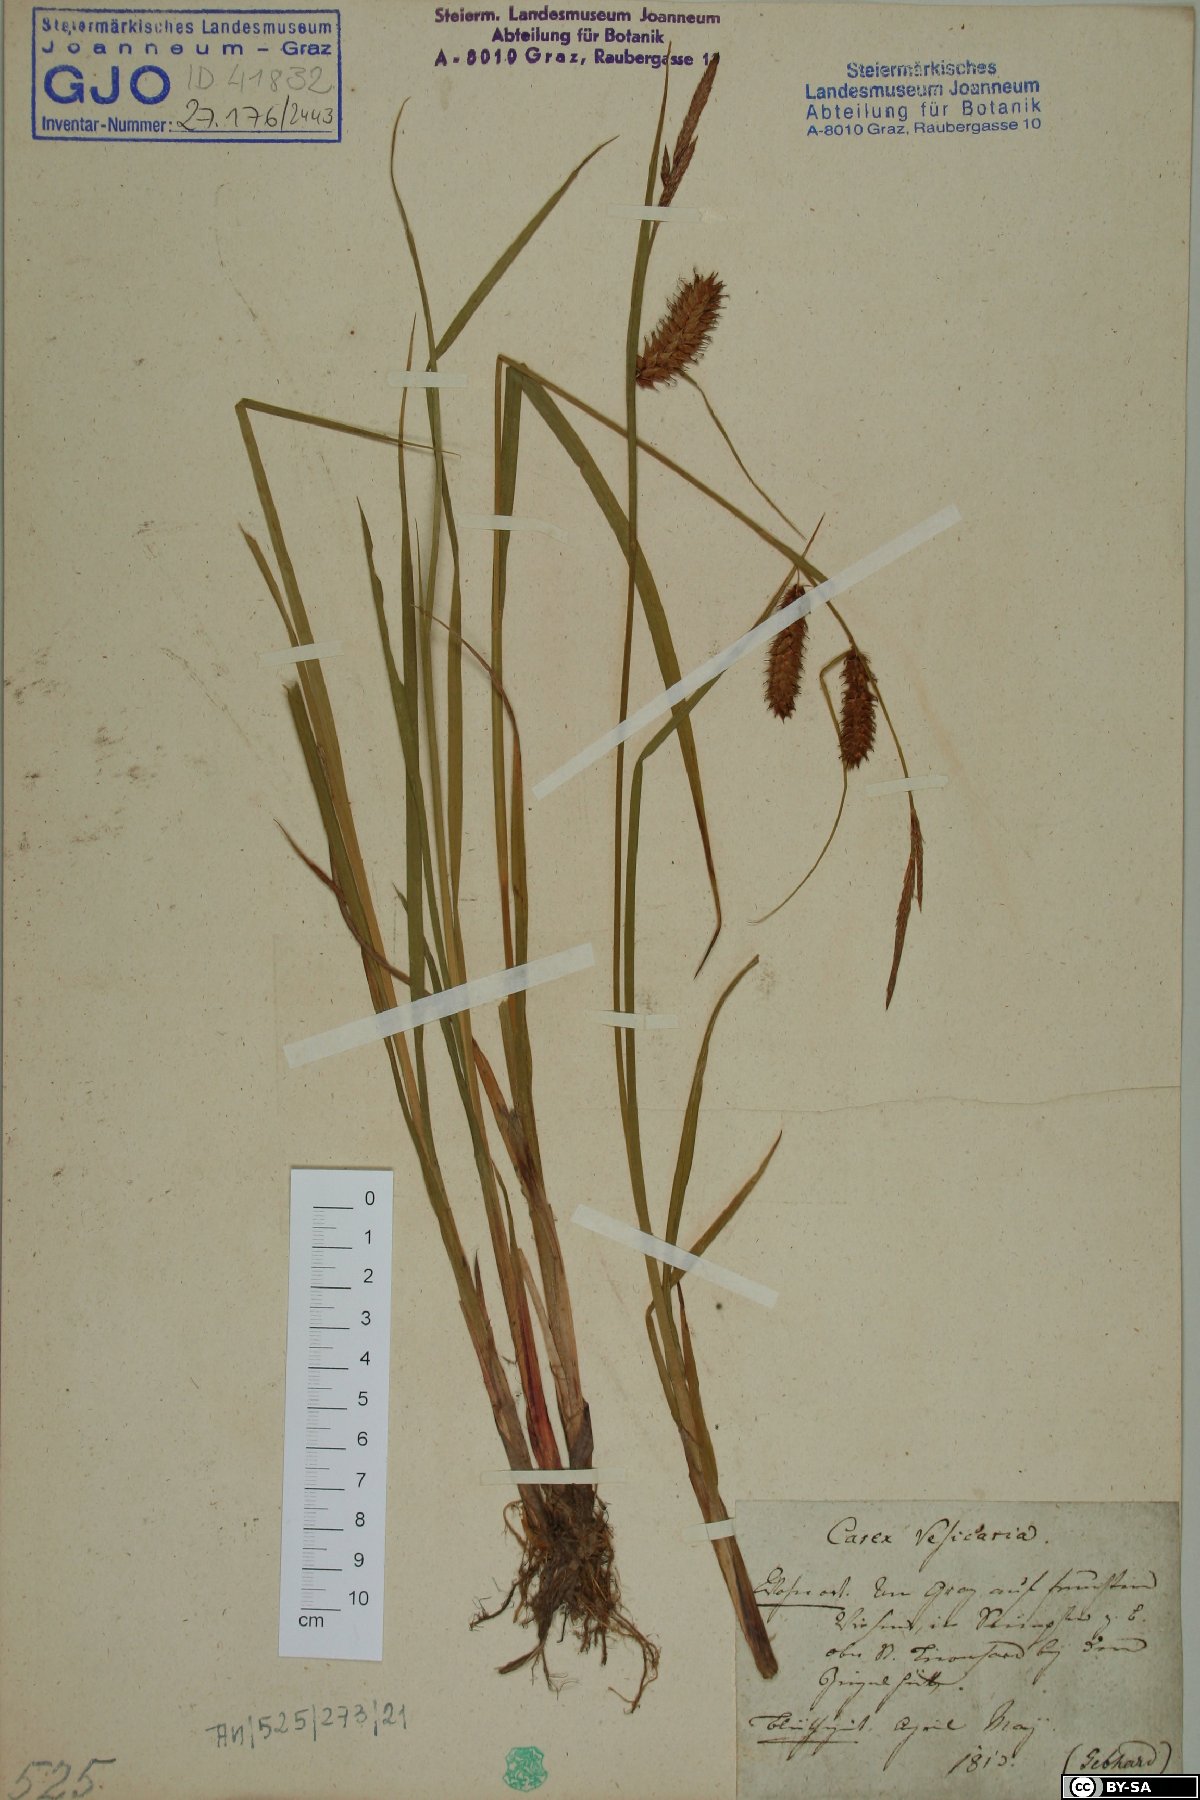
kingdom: Plantae
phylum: Tracheophyta
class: Liliopsida
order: Poales
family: Cyperaceae
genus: Carex
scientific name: Carex vesicaria
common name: Bladder-sedge
